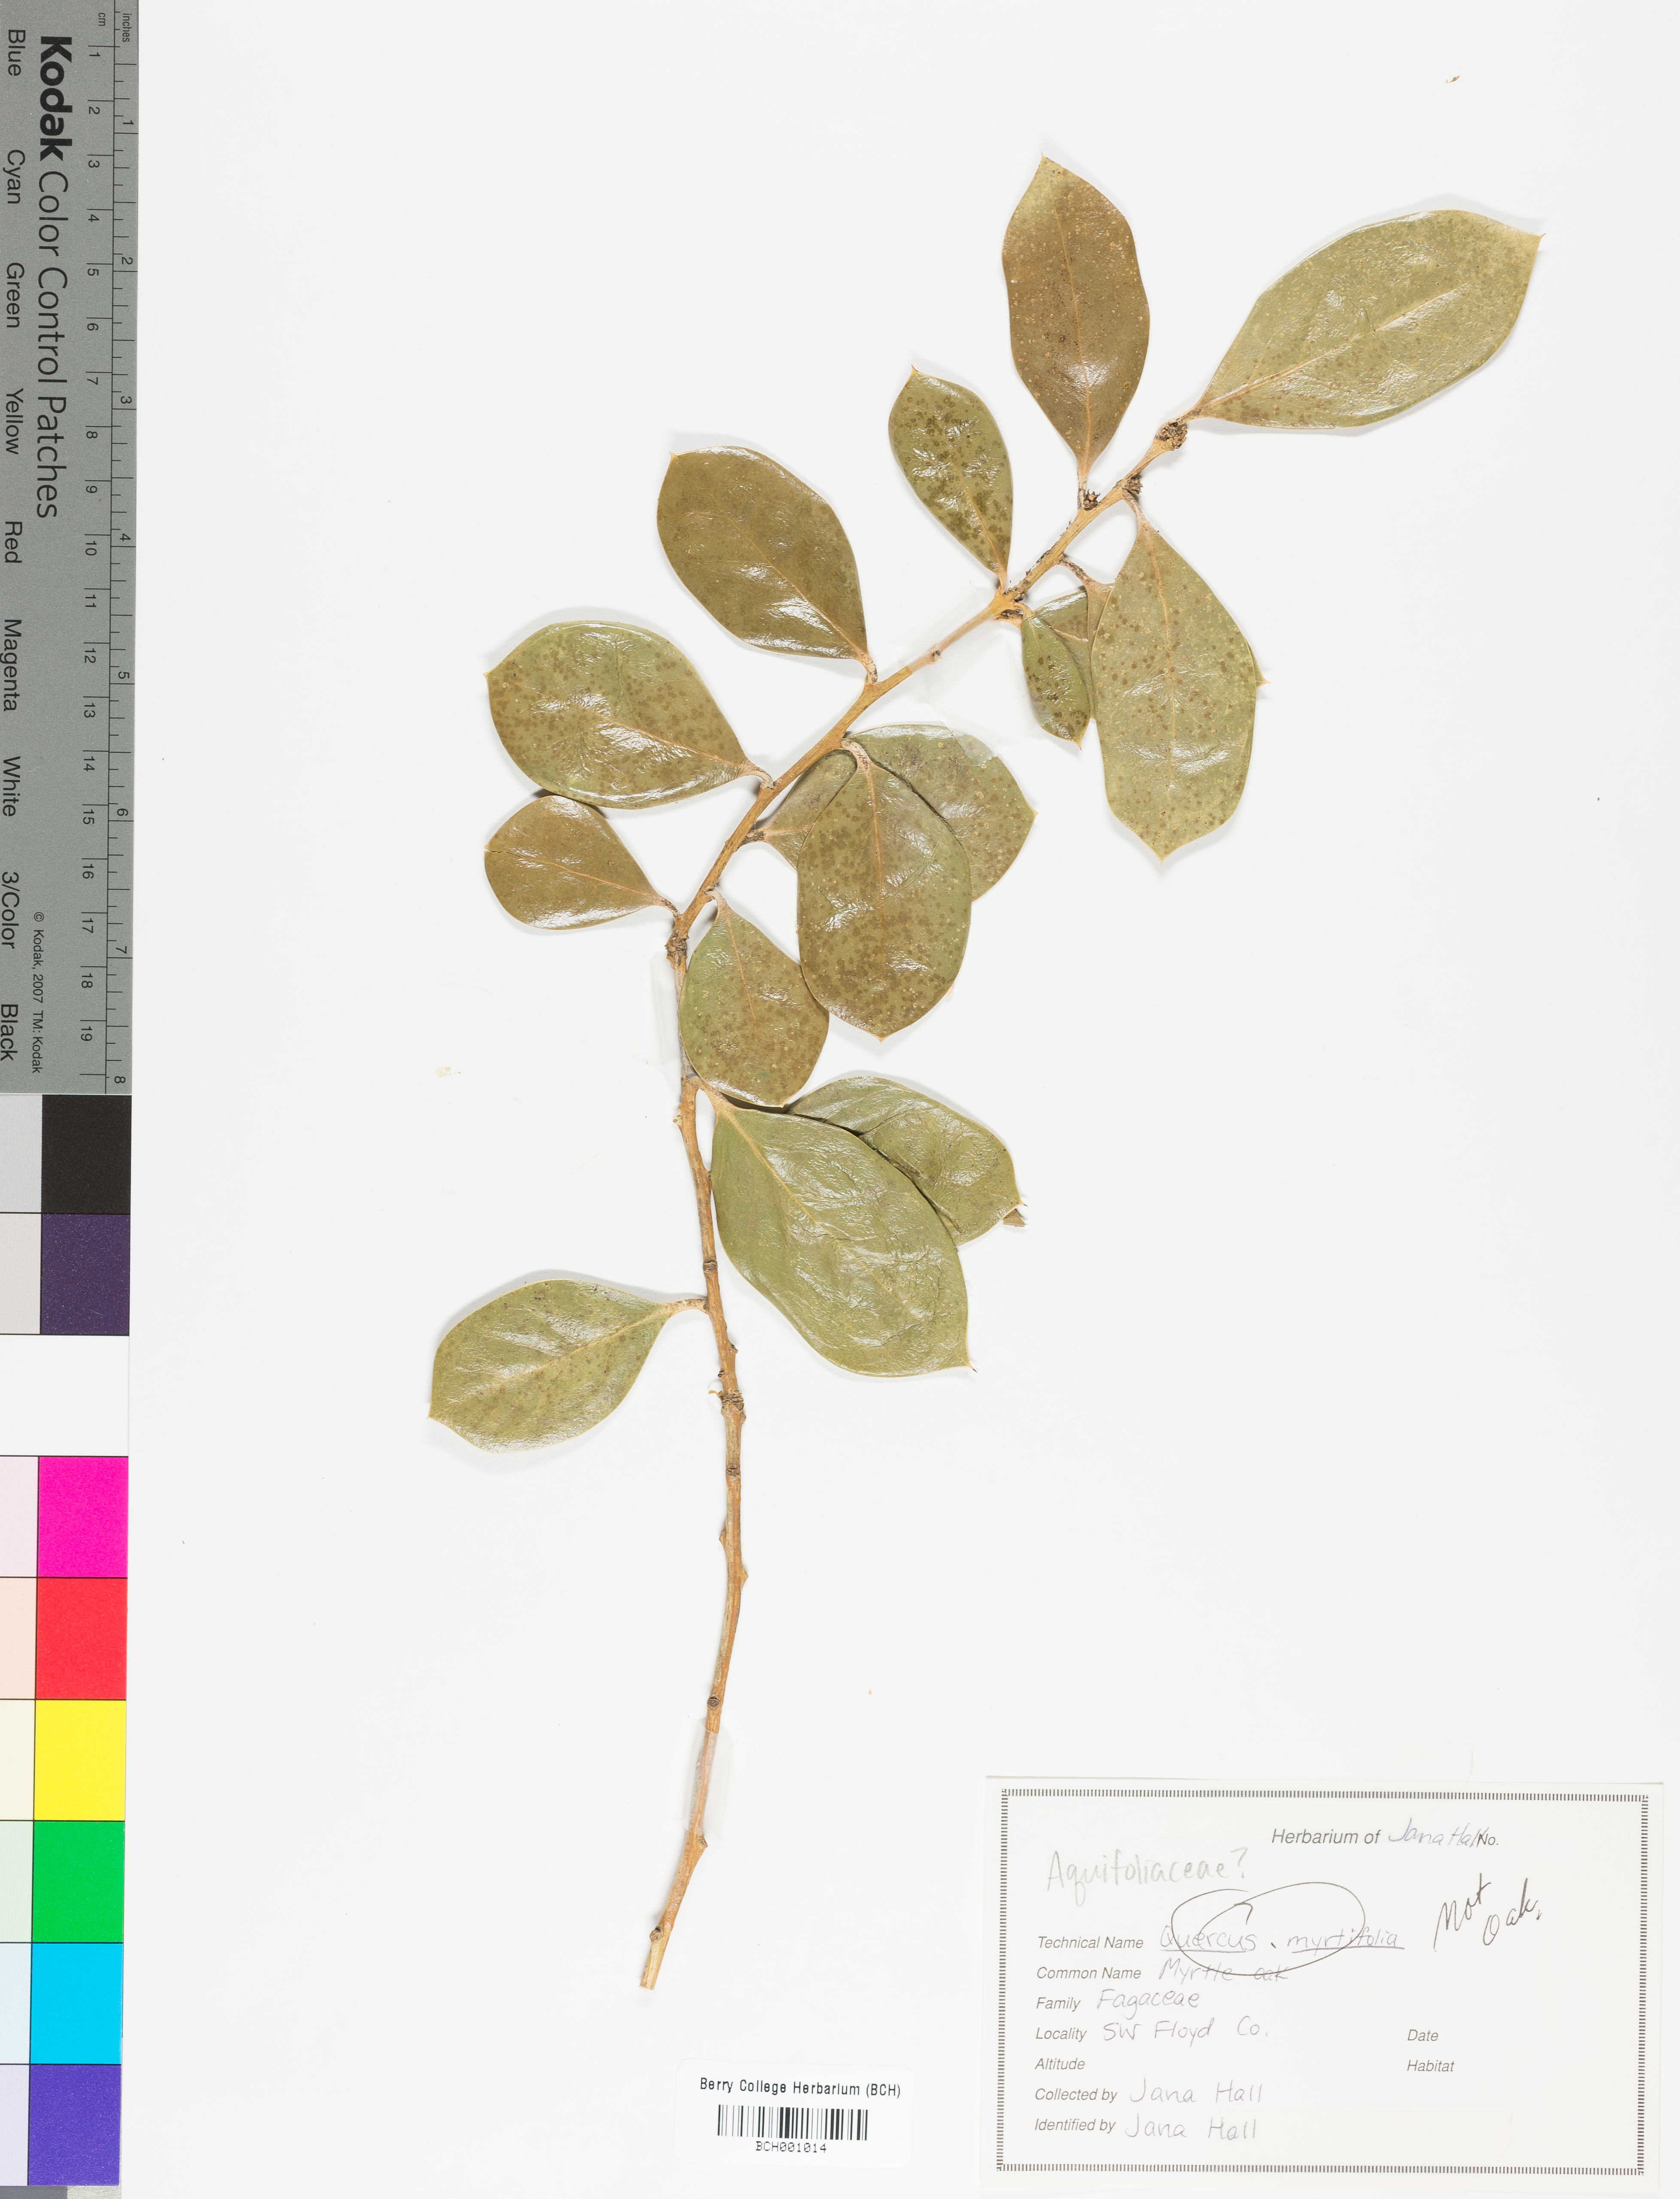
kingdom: Plantae
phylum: Tracheophyta
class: Magnoliopsida
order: Aquifoliales
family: Aquifoliaceae
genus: Ilex
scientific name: Ilex
